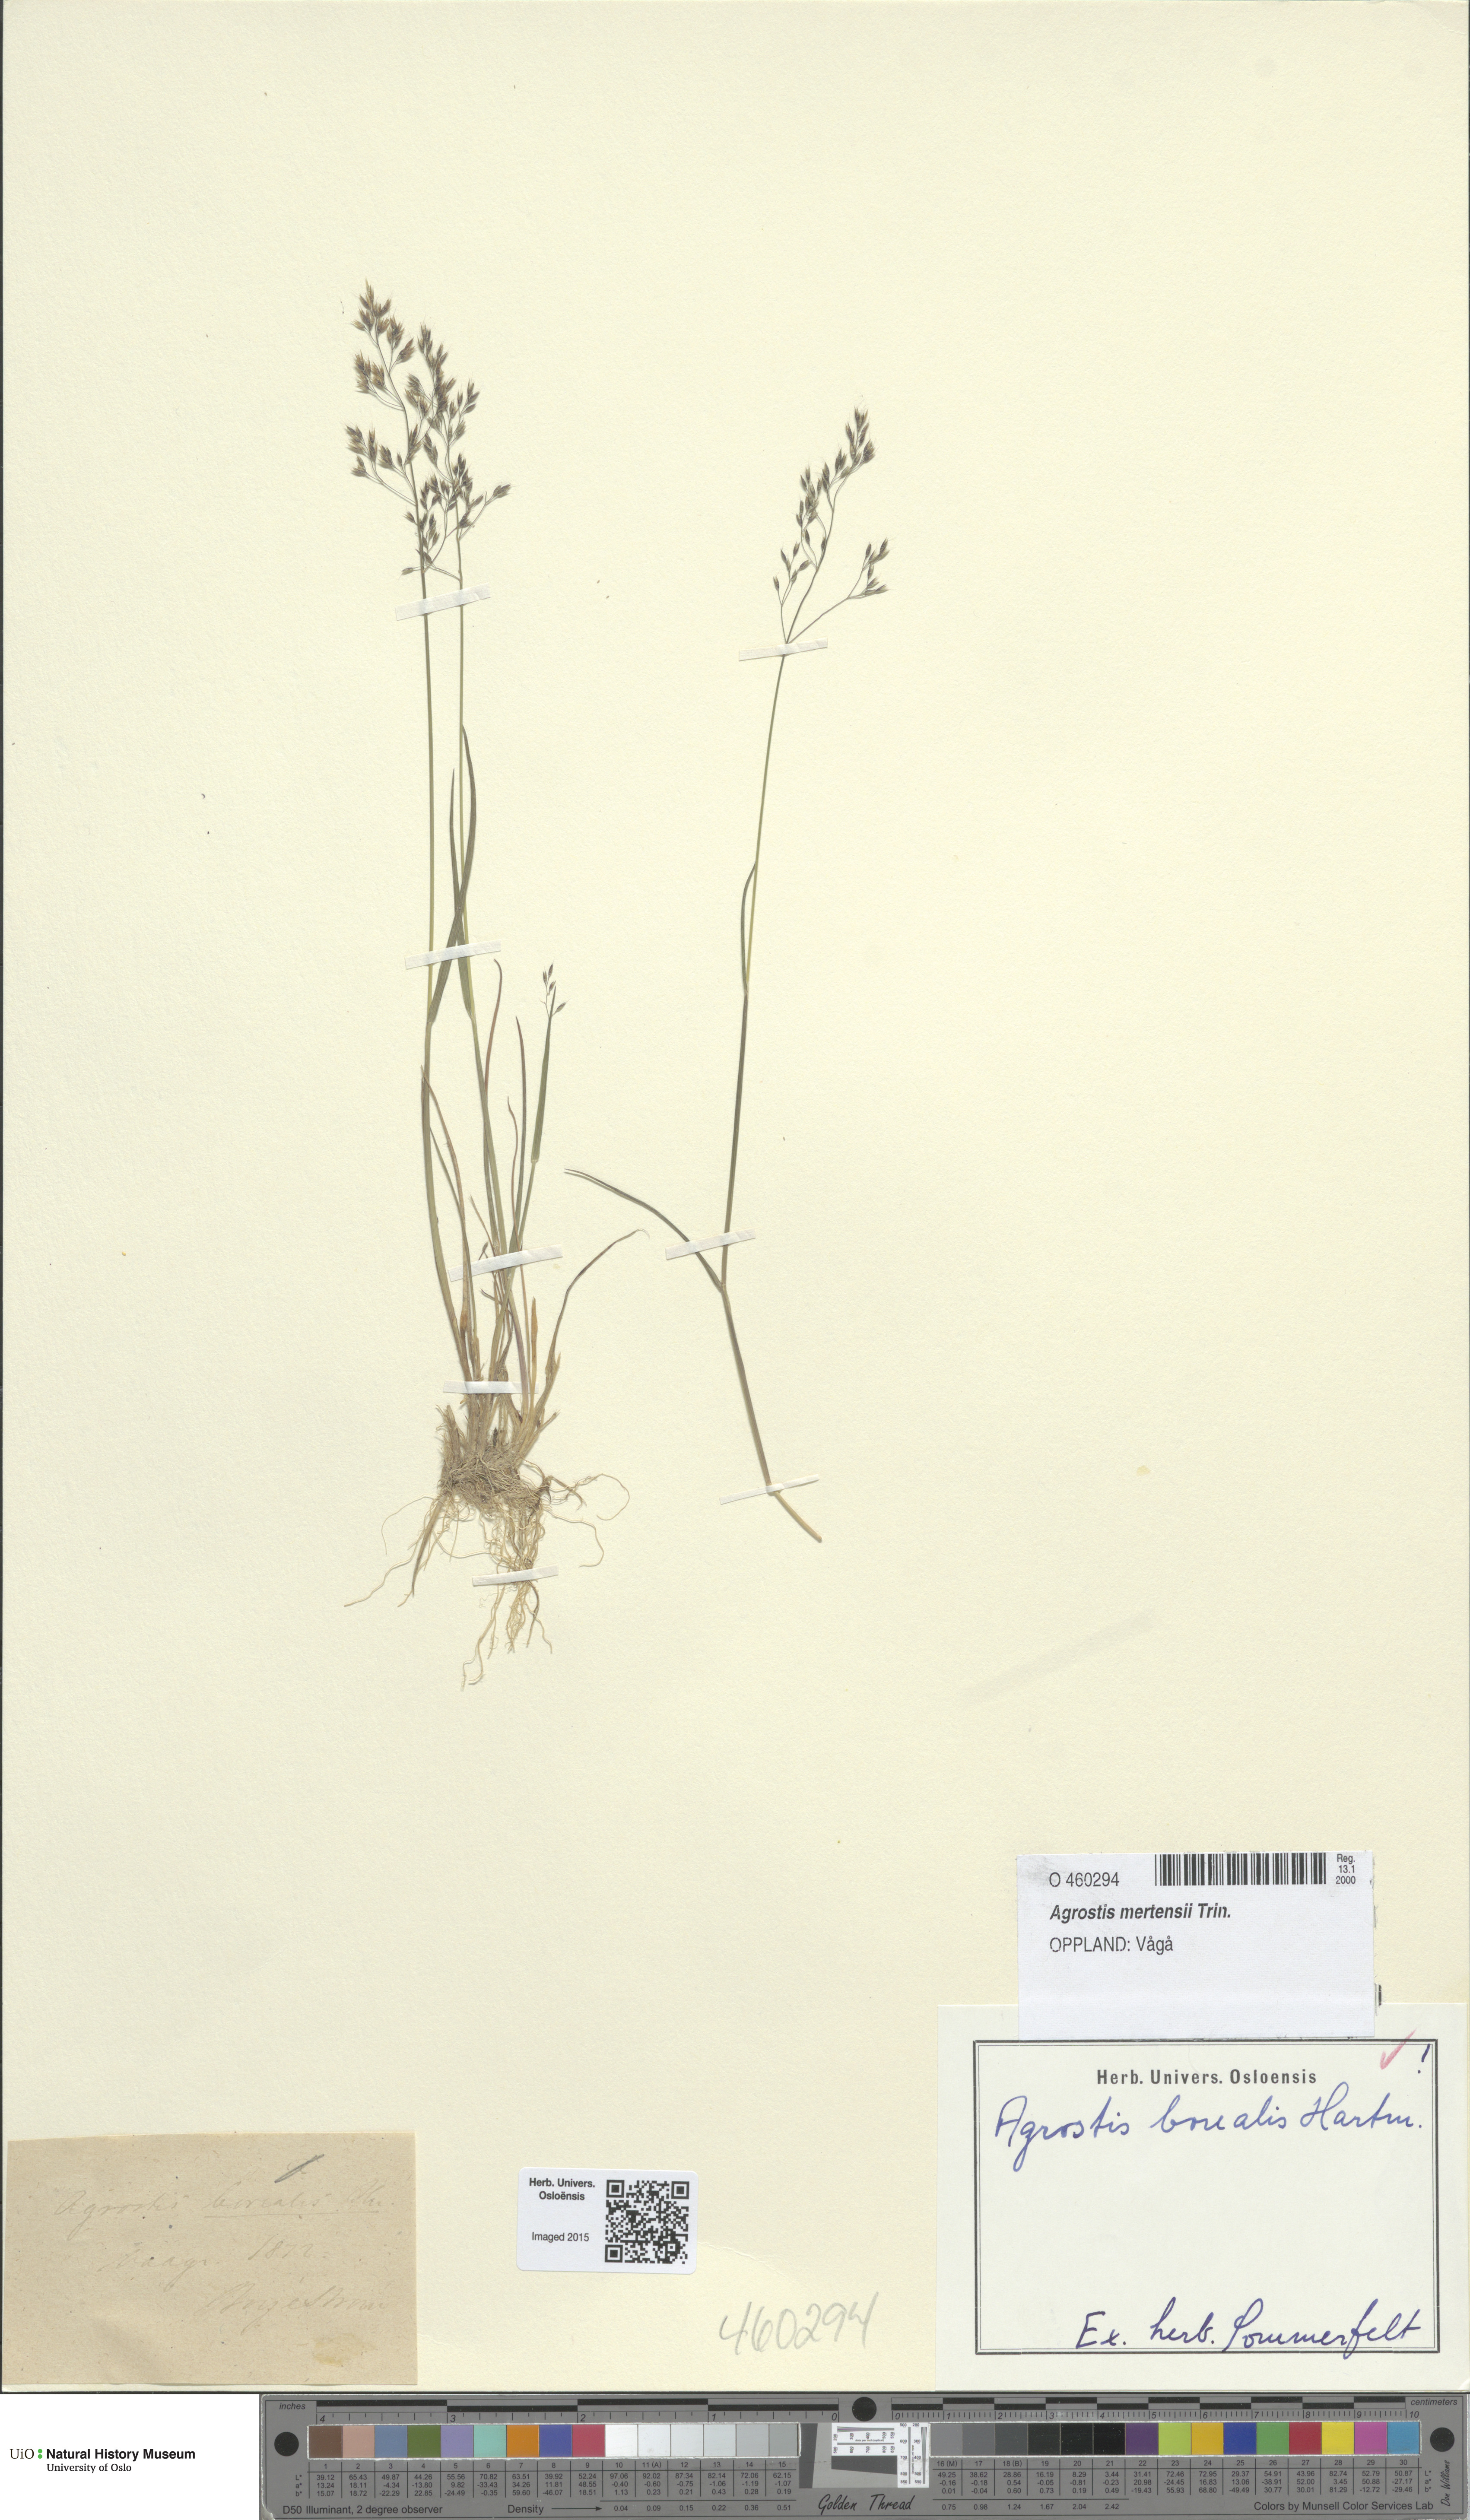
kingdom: Plantae
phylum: Tracheophyta
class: Liliopsida
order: Poales
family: Poaceae
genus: Agrostis
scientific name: Agrostis mertensii
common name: Northern bent
